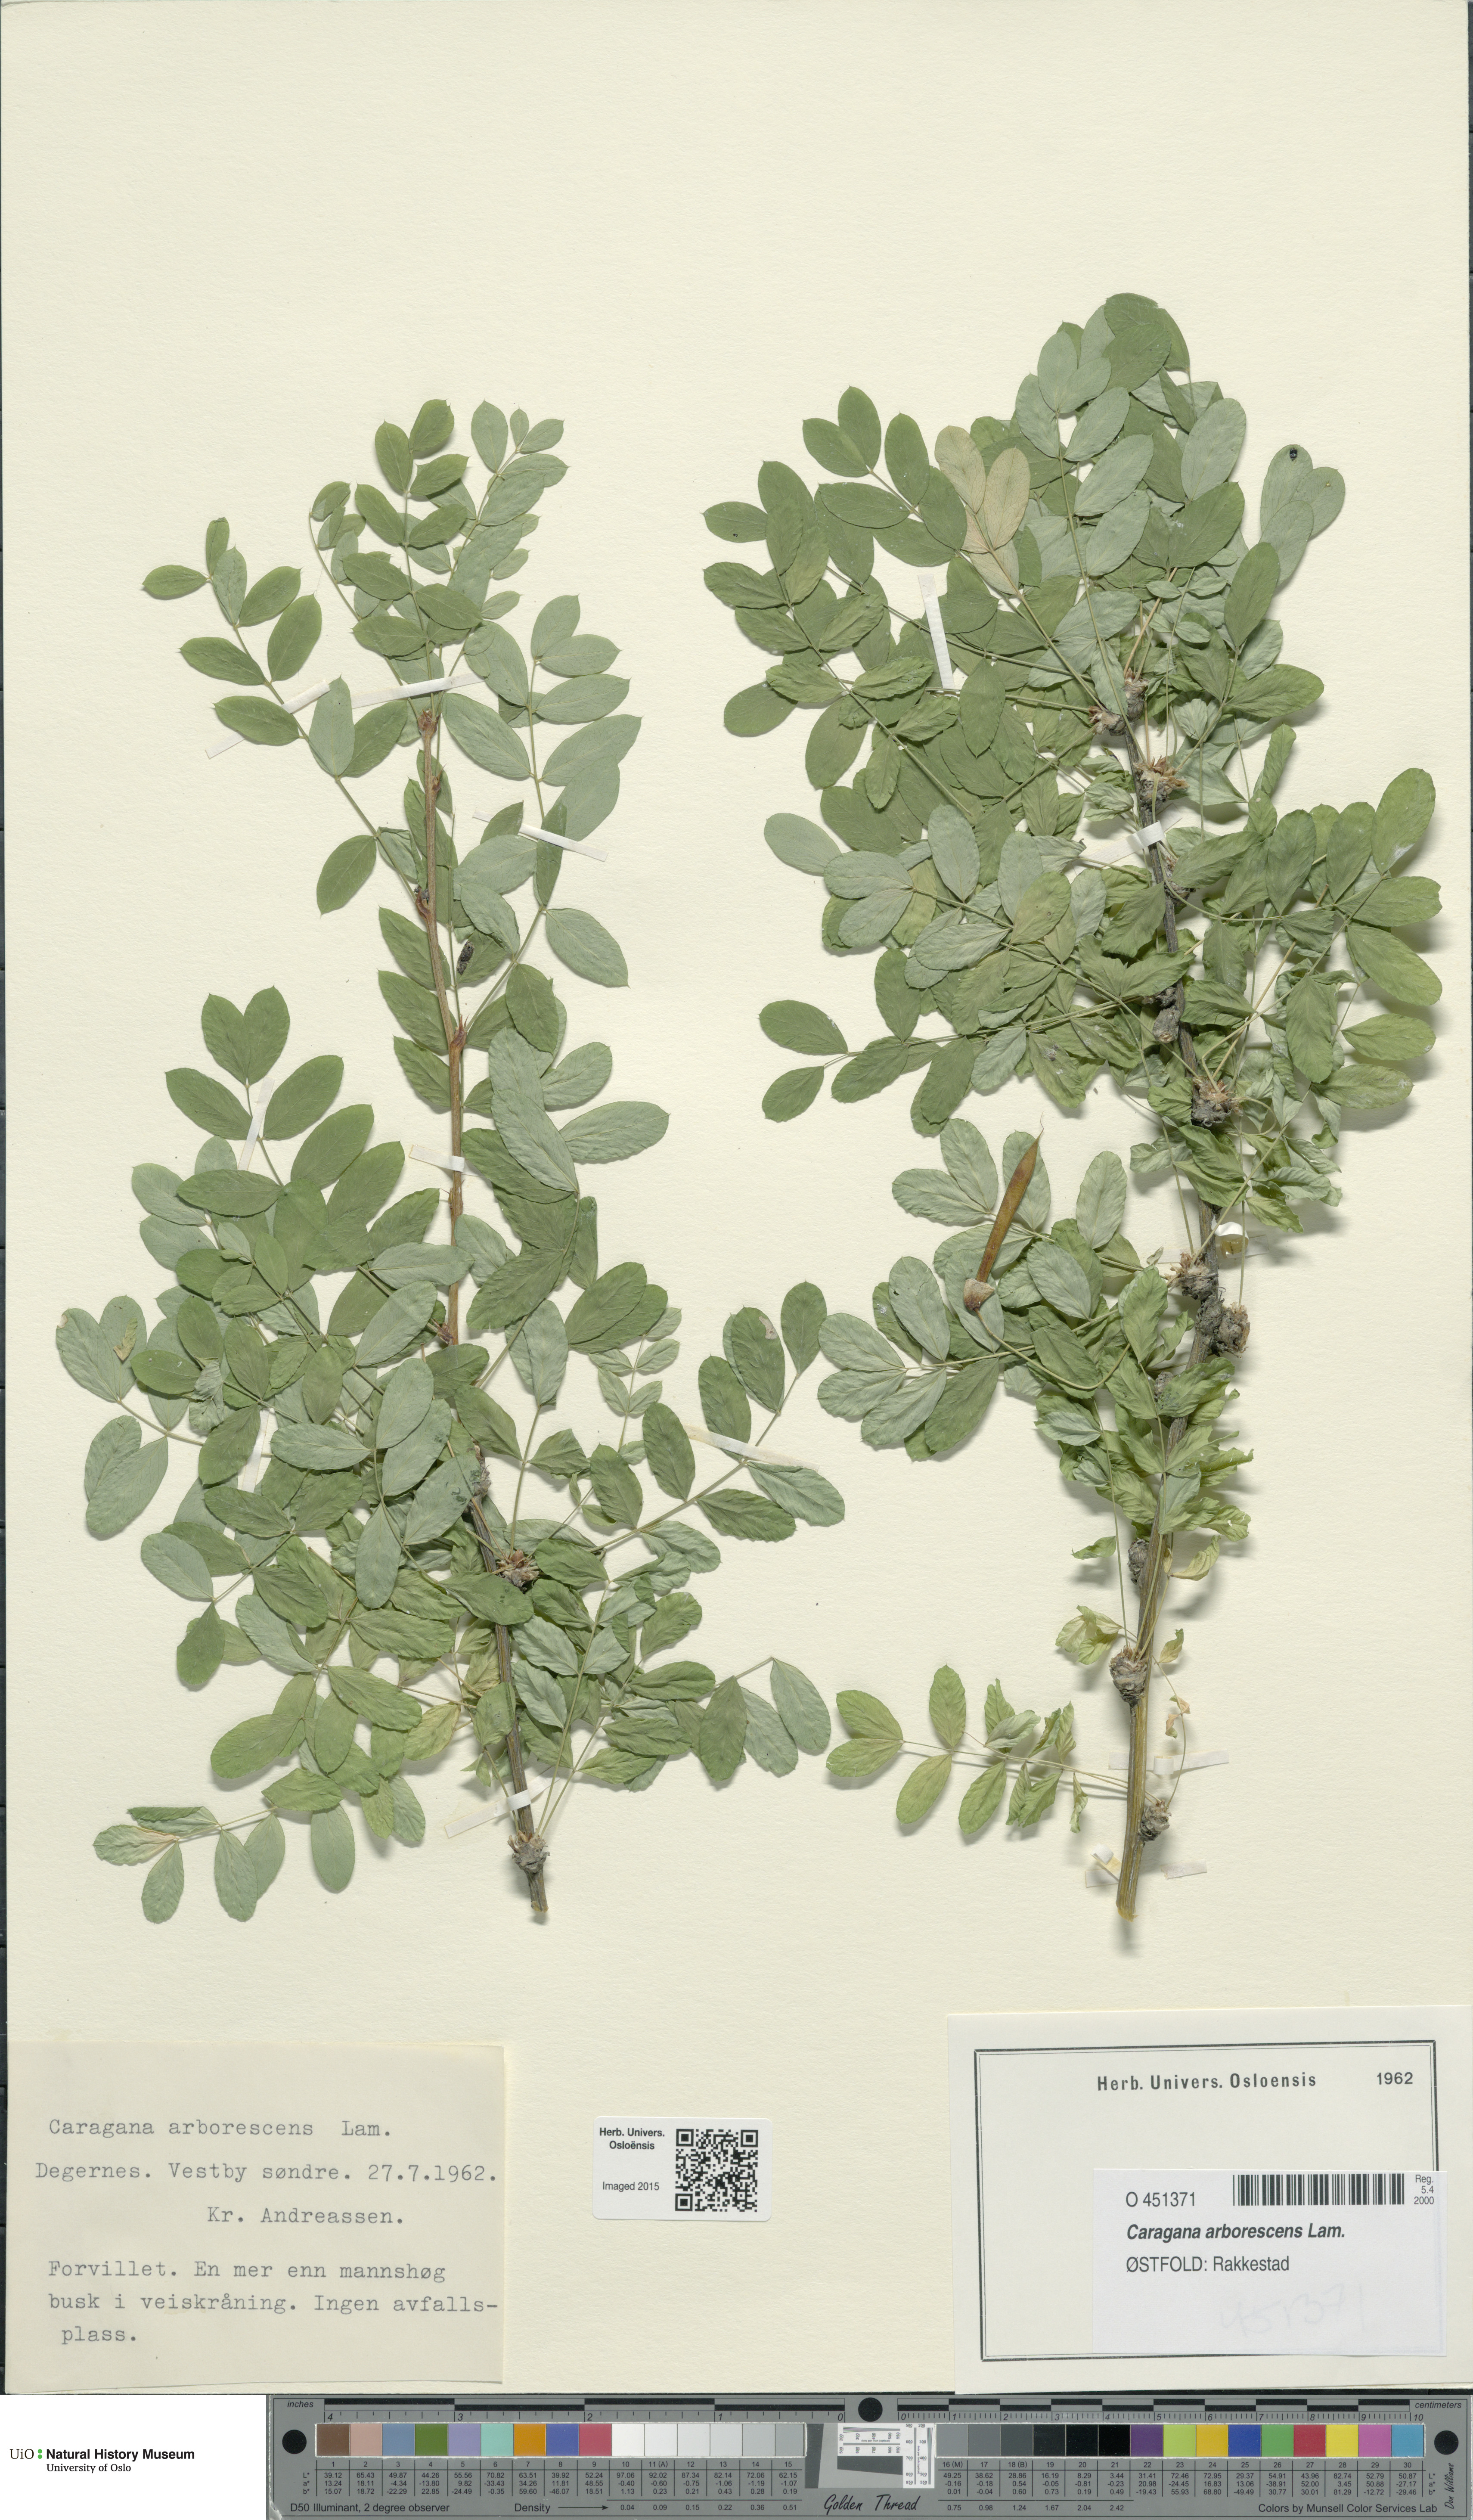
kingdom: Plantae
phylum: Tracheophyta
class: Magnoliopsida
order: Fabales
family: Fabaceae
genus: Caragana
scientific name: Caragana arborescens
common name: Siberian peashrub
